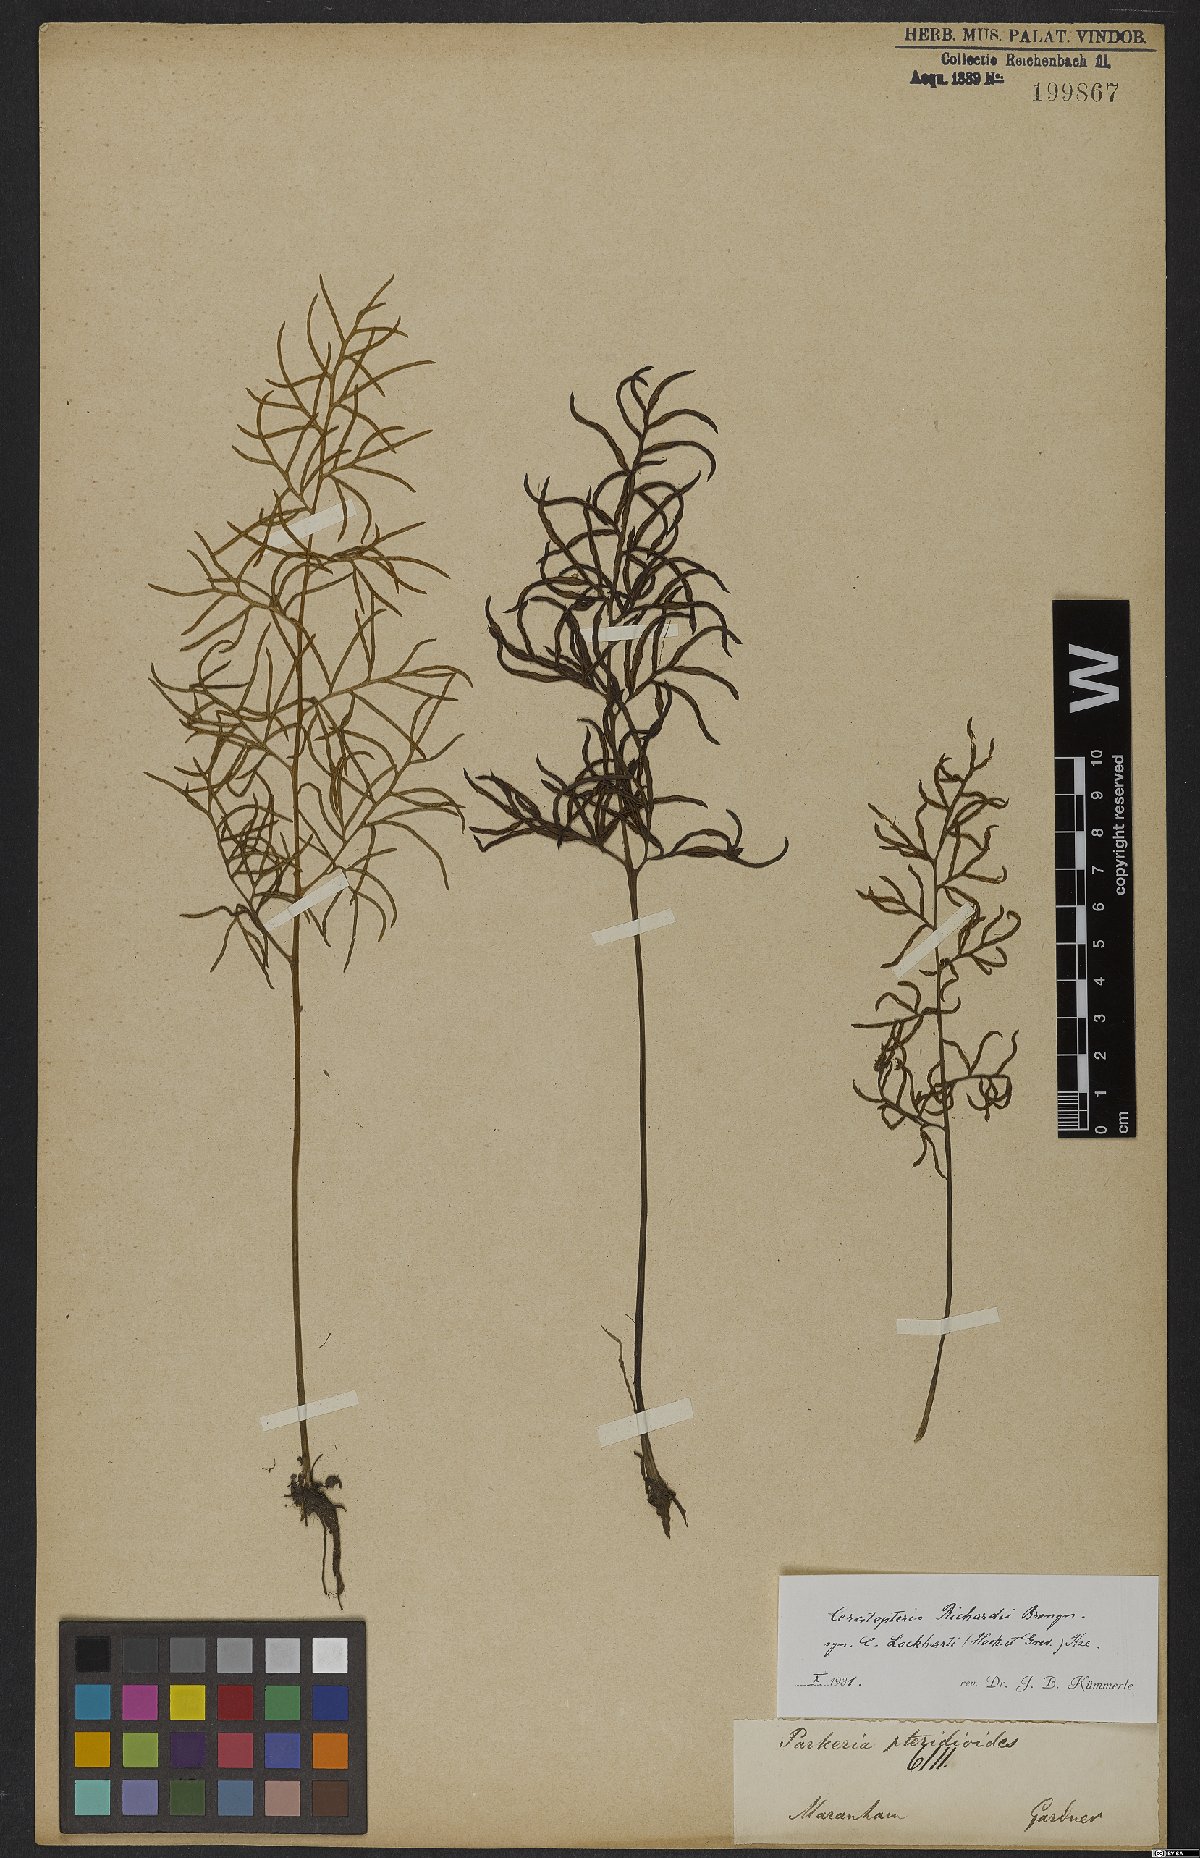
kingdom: Plantae
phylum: Tracheophyta
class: Polypodiopsida
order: Polypodiales
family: Pteridaceae
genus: Ceratopteris
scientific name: Ceratopteris richardii
